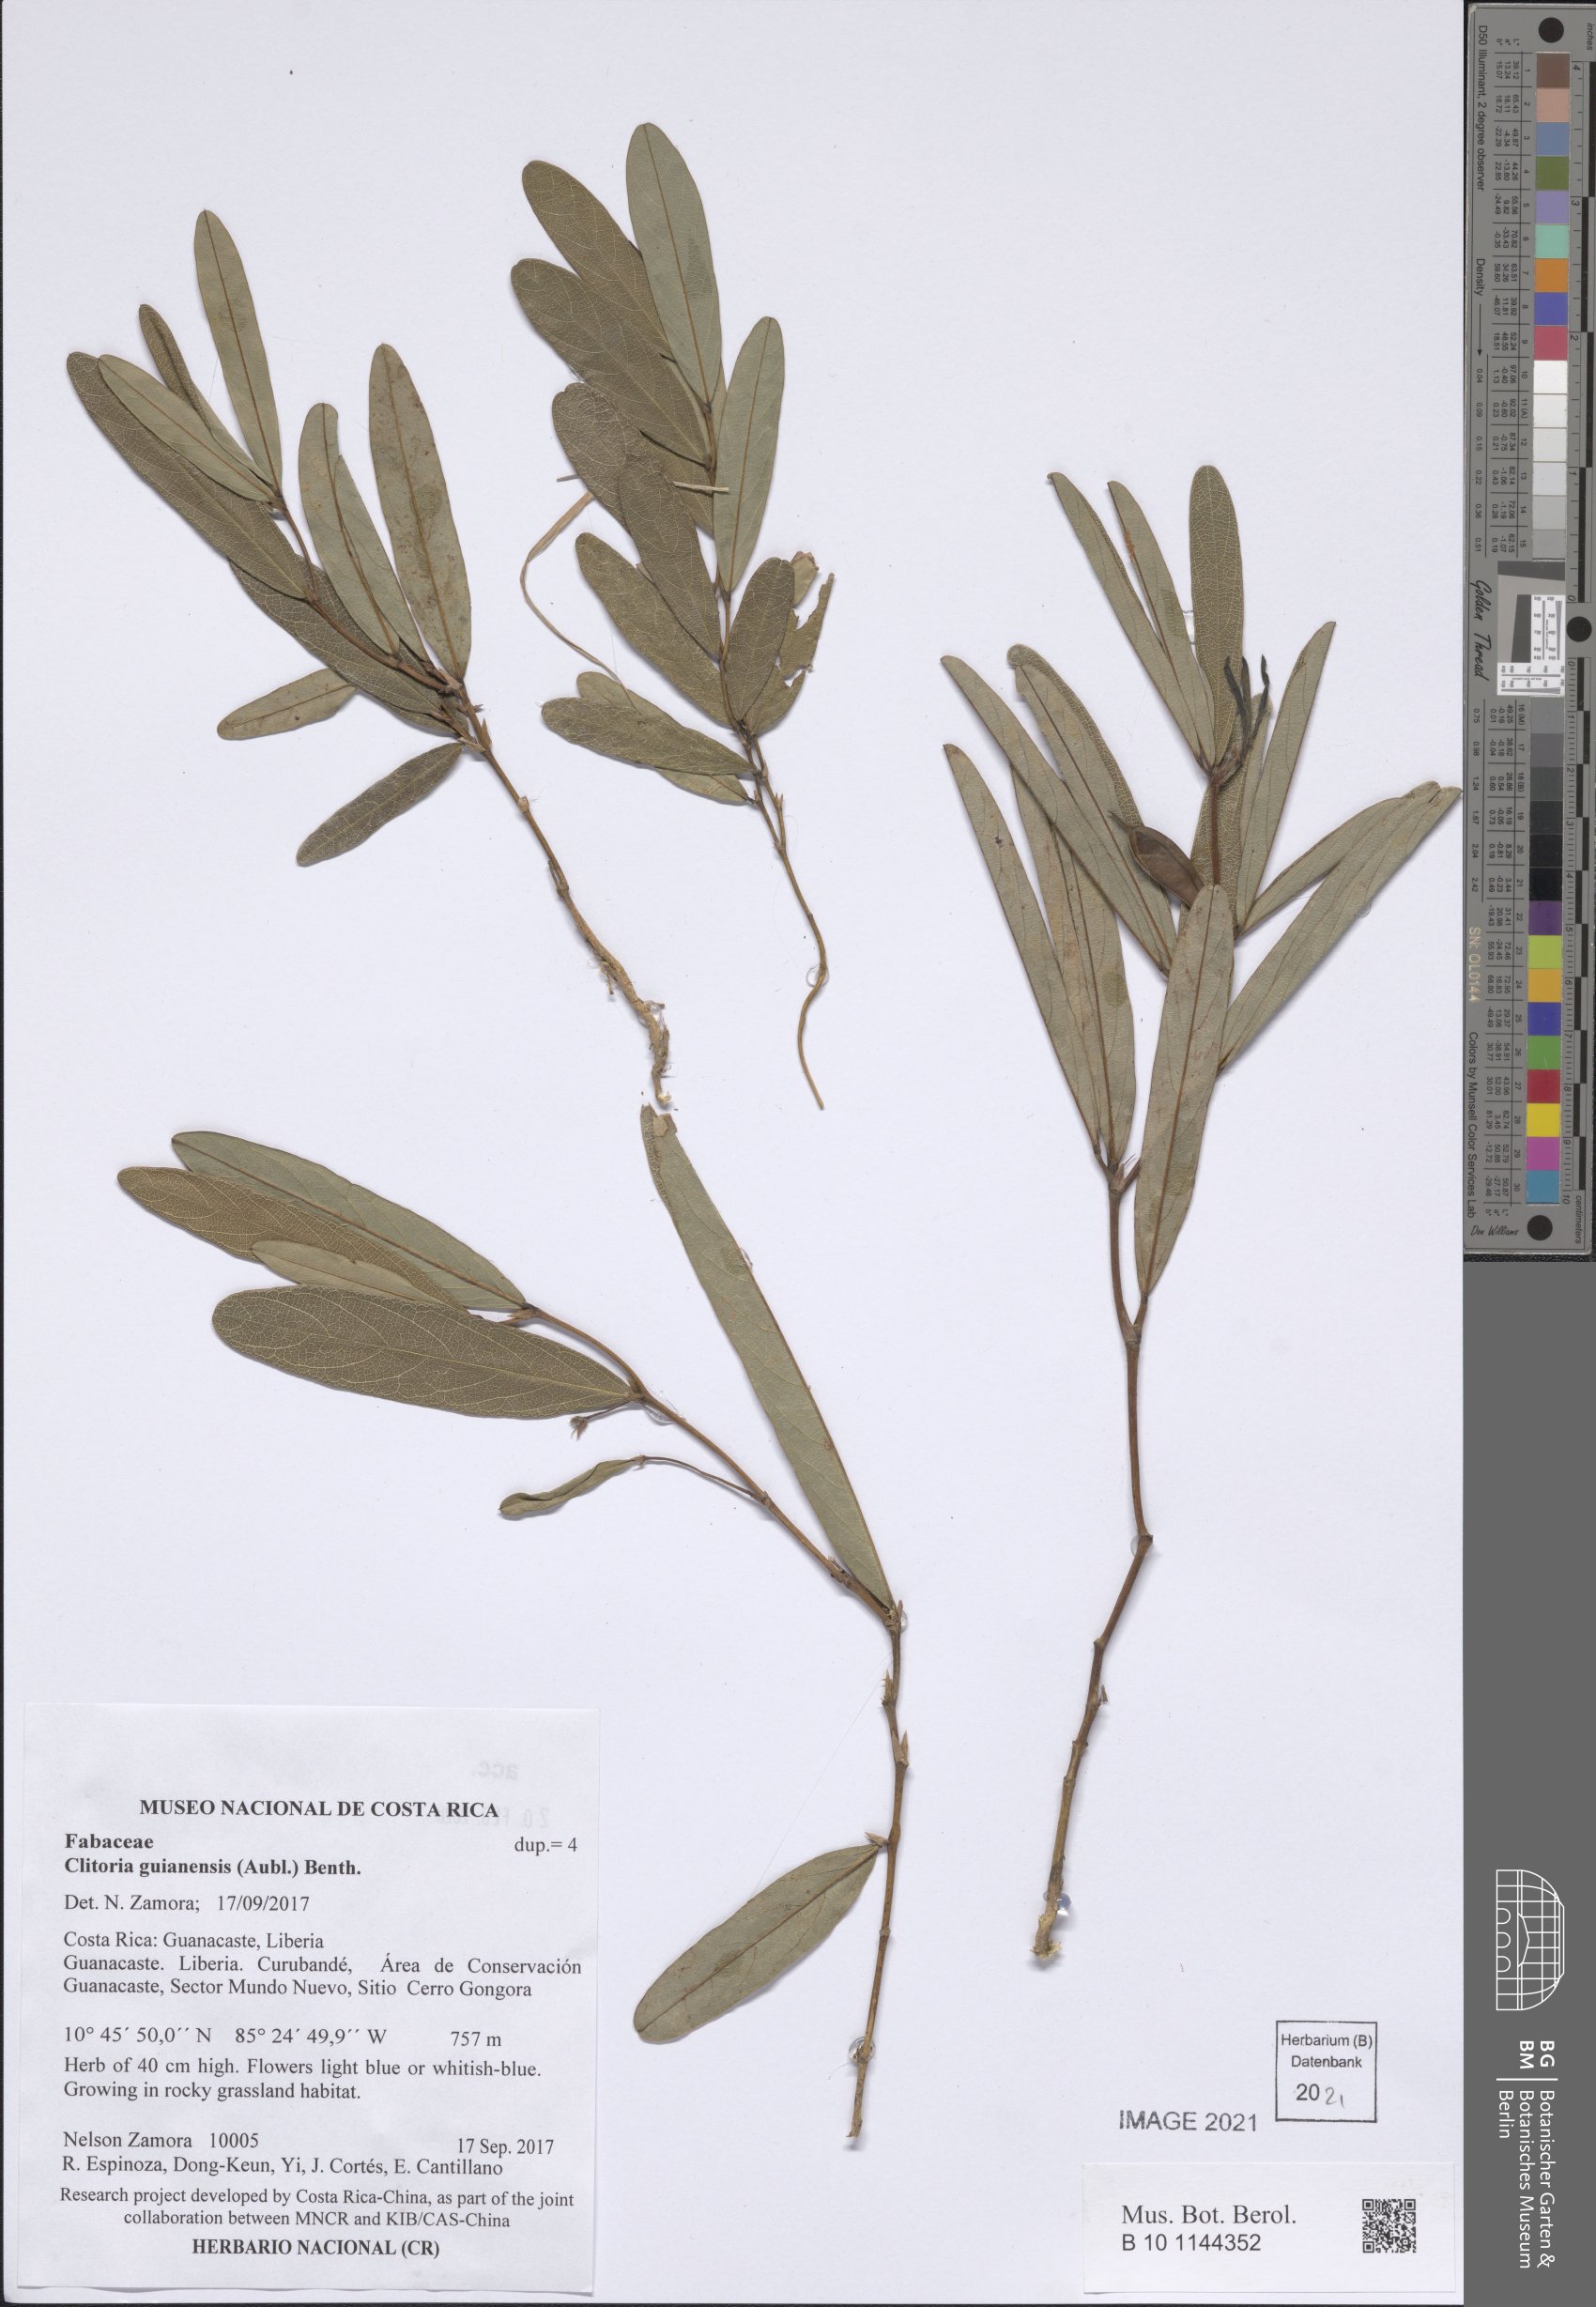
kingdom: Plantae
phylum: Tracheophyta
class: Magnoliopsida
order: Fabales
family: Fabaceae
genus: Clitoria
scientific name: Clitoria guianensis
